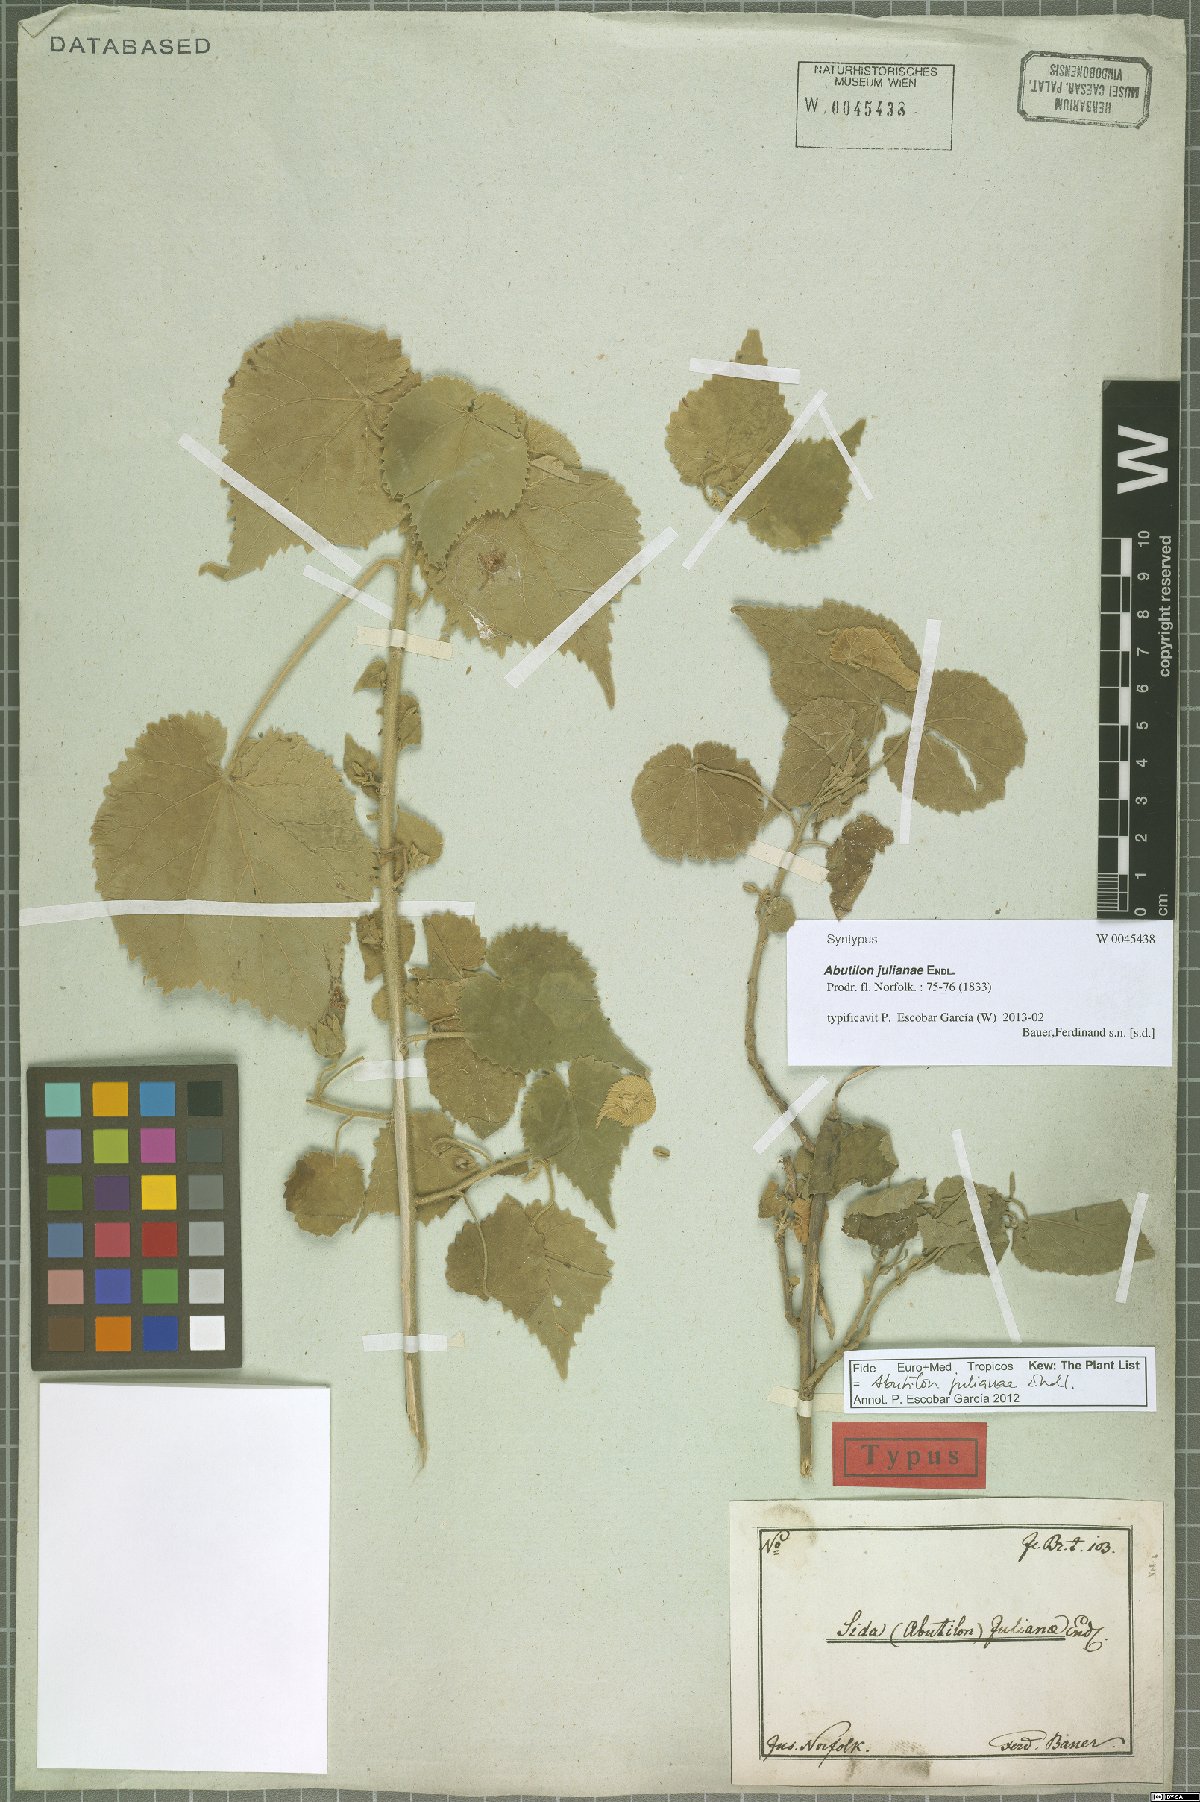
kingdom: Plantae
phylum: Tracheophyta
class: Magnoliopsida
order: Malvales
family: Malvaceae
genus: Abutilon
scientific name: Abutilon julianae
